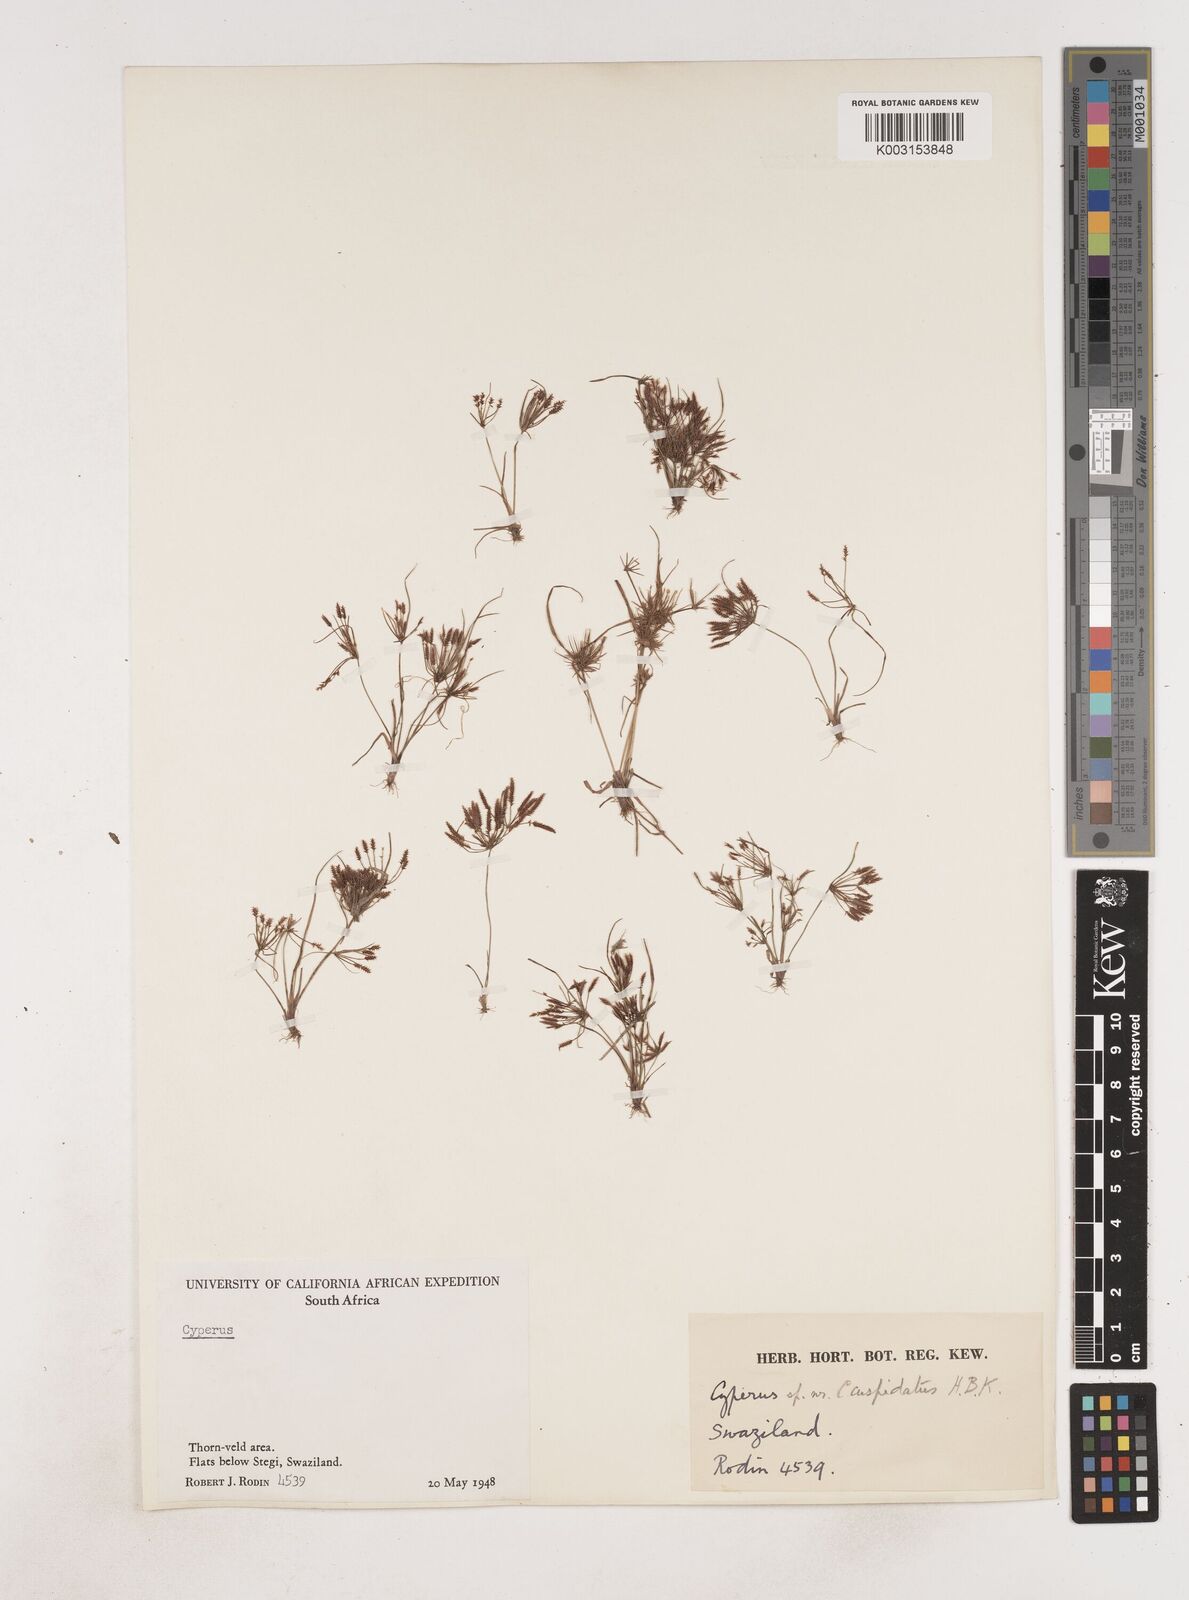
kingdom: Plantae
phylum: Tracheophyta
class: Liliopsida
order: Poales
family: Cyperaceae
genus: Cyperus
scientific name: Cyperus
